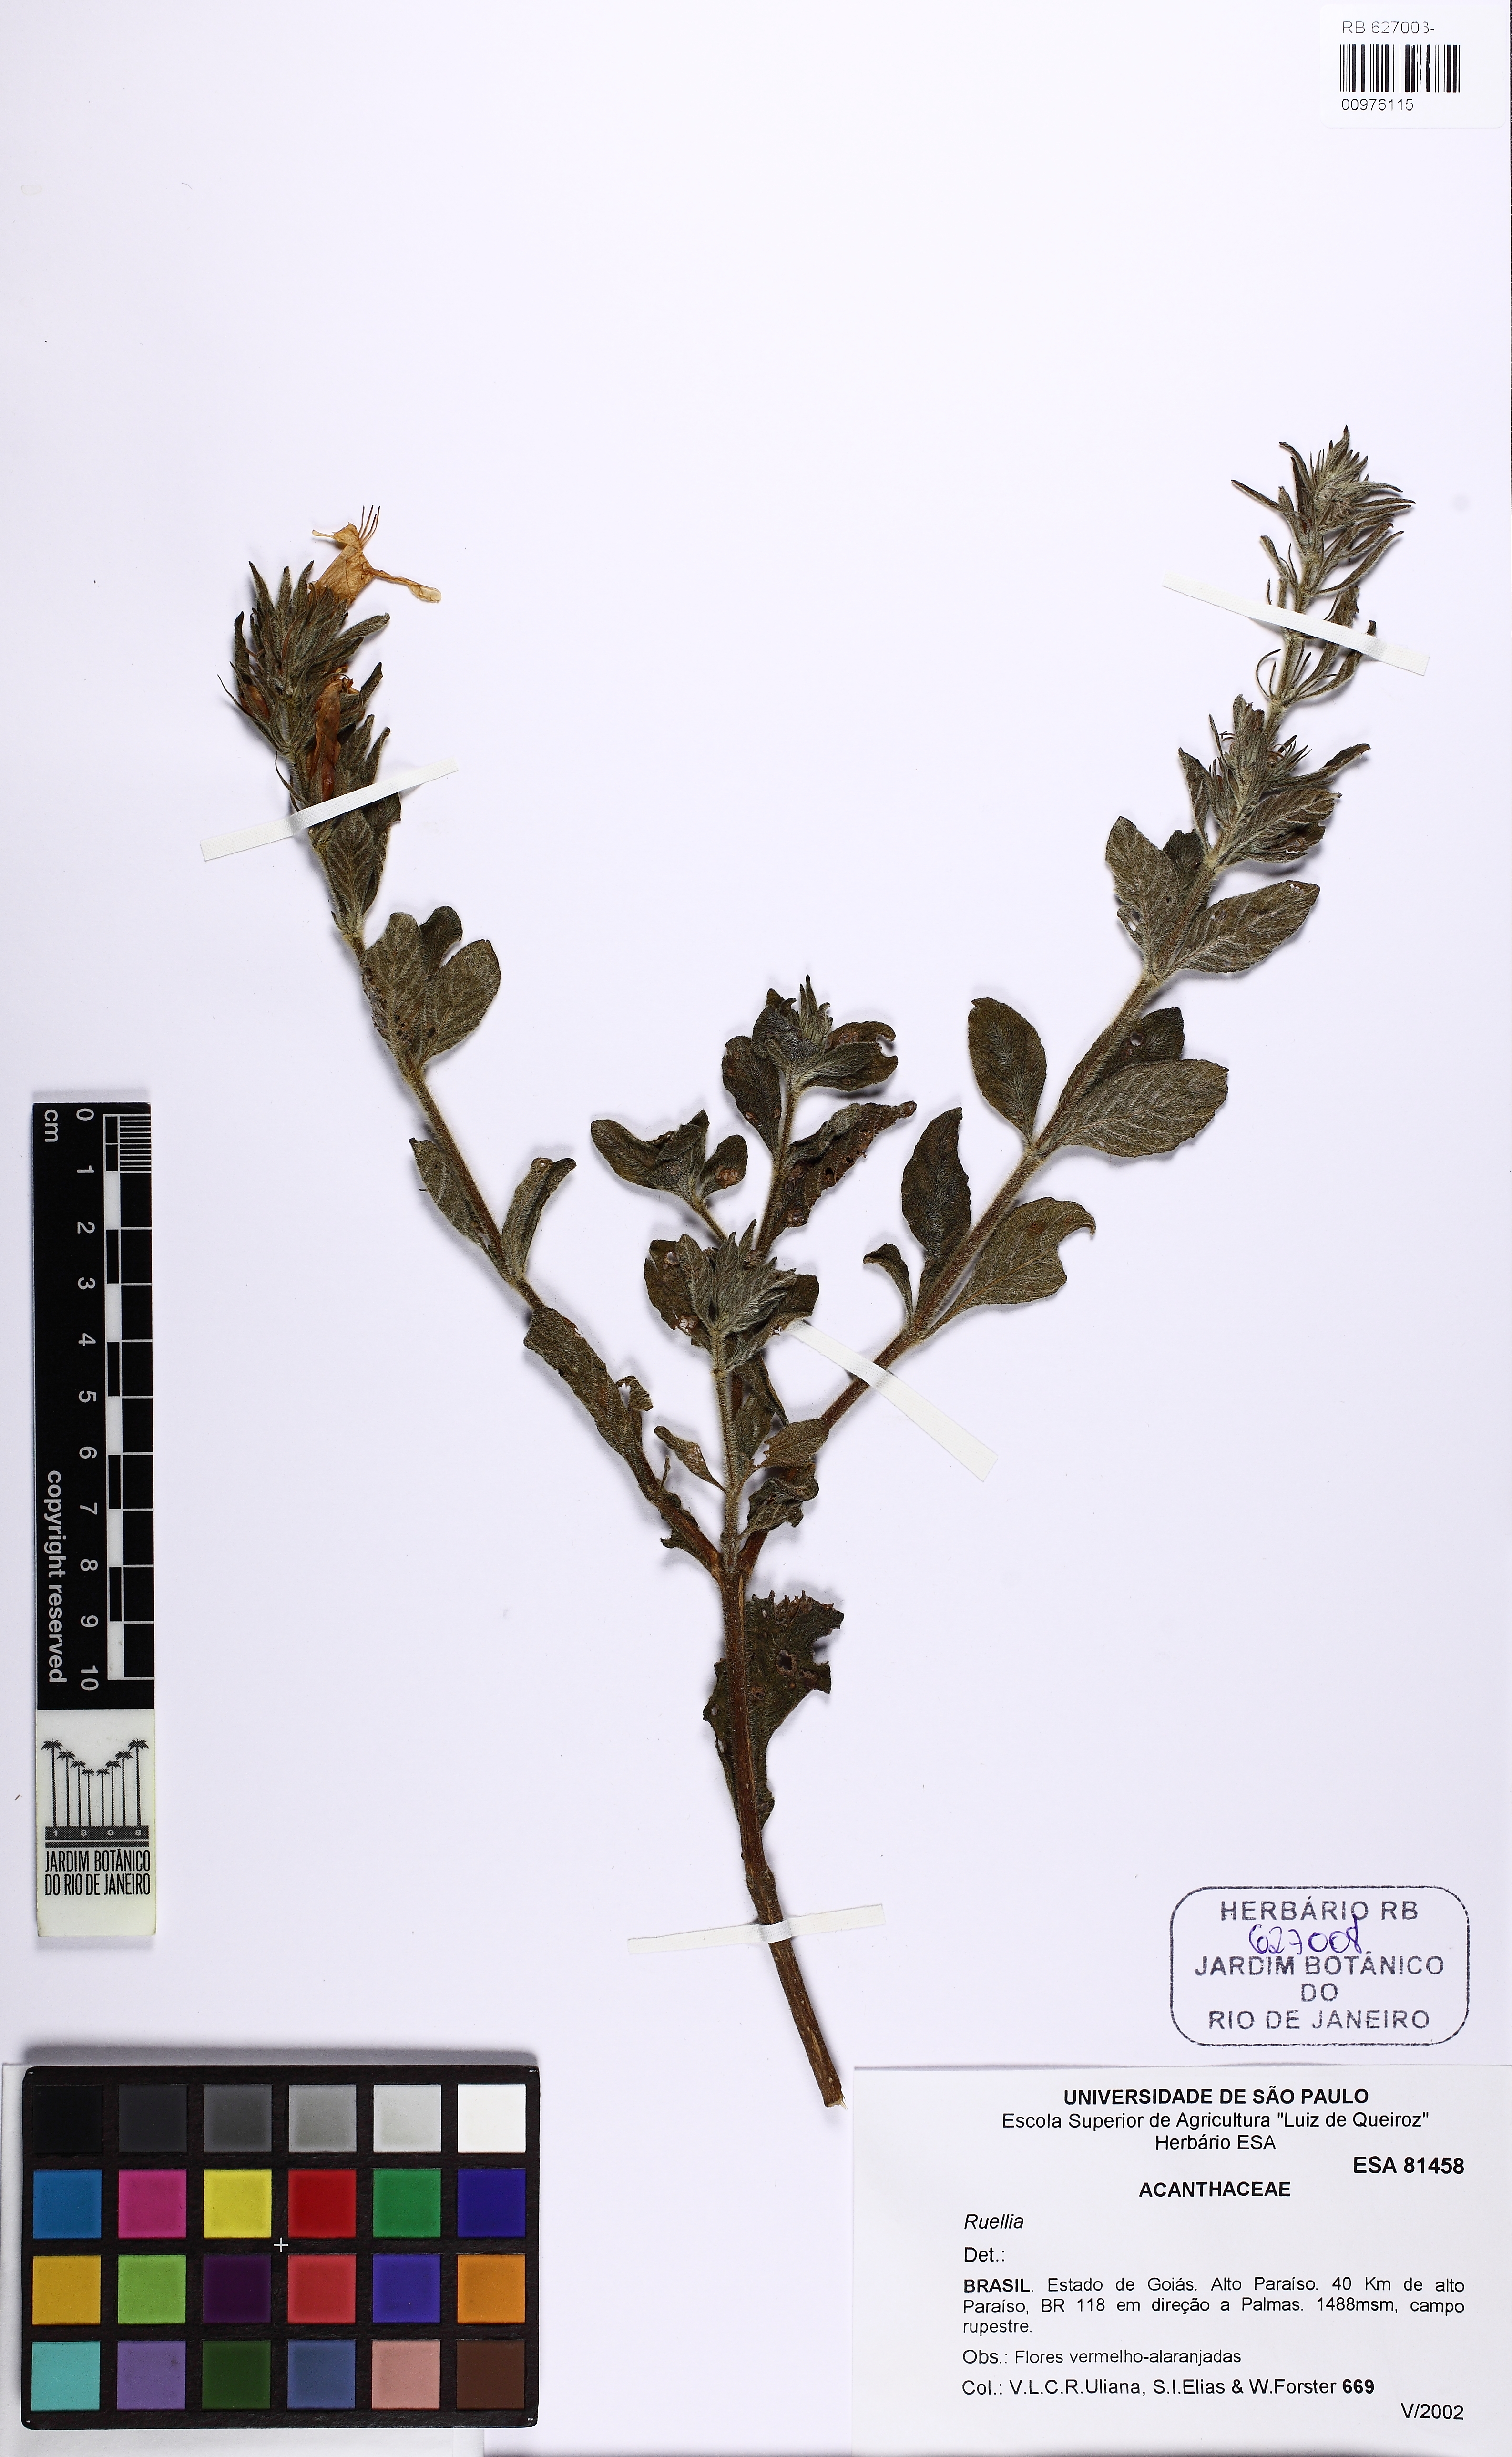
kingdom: Plantae
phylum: Tracheophyta
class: Magnoliopsida
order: Lamiales
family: Acanthaceae
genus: Ruellia
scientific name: Ruellia
